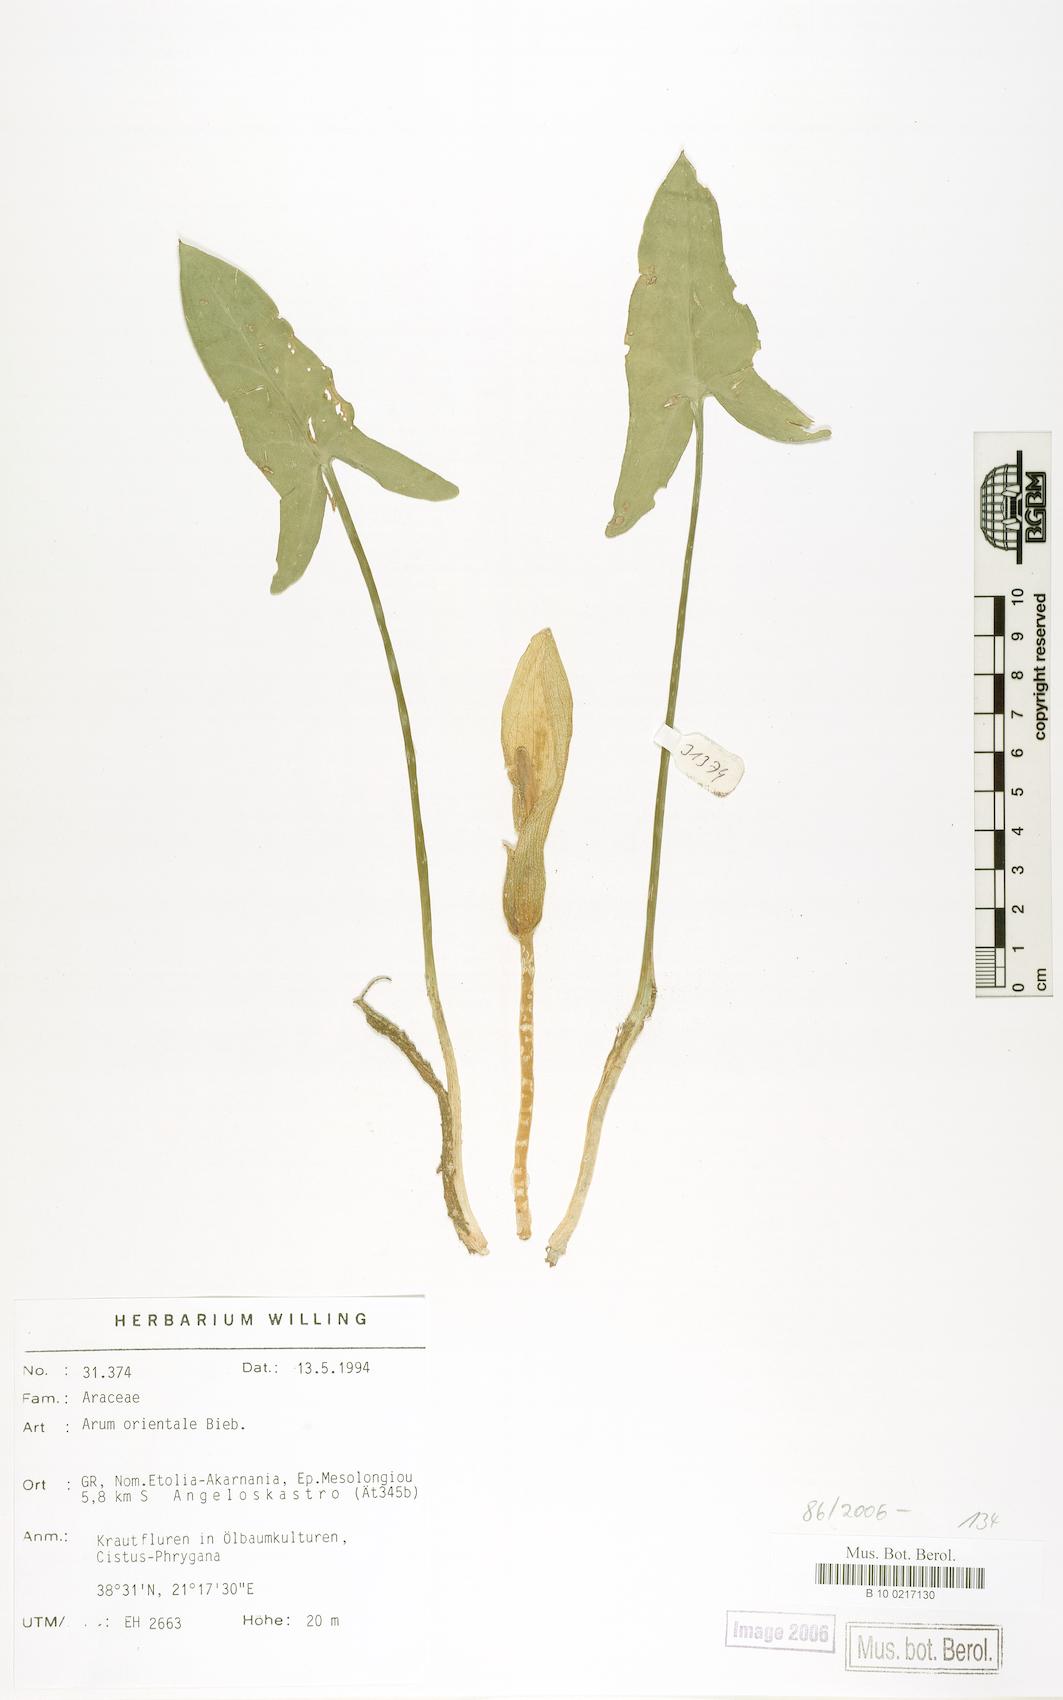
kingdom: Plantae
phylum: Tracheophyta
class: Liliopsida
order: Alismatales
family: Araceae
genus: Arum
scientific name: Arum orientale
